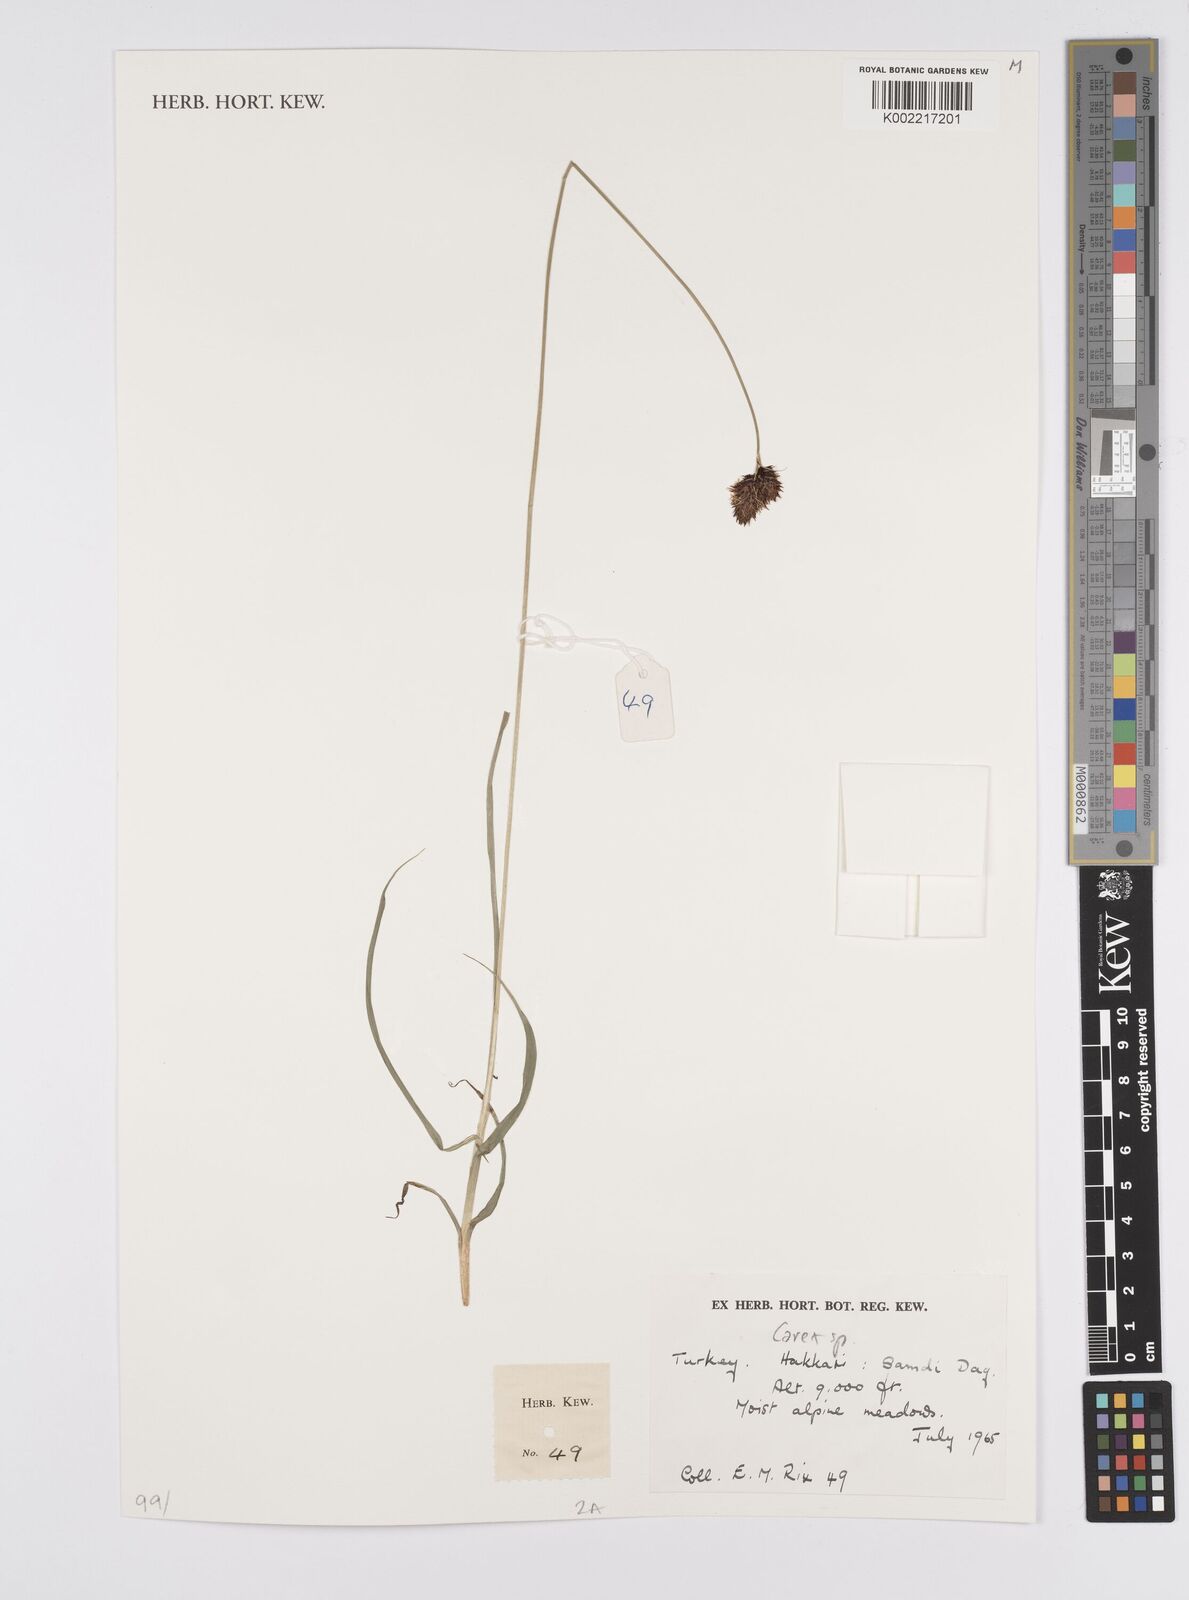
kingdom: Plantae
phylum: Tracheophyta
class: Liliopsida
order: Poales
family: Cyperaceae
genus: Carex
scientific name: Carex
